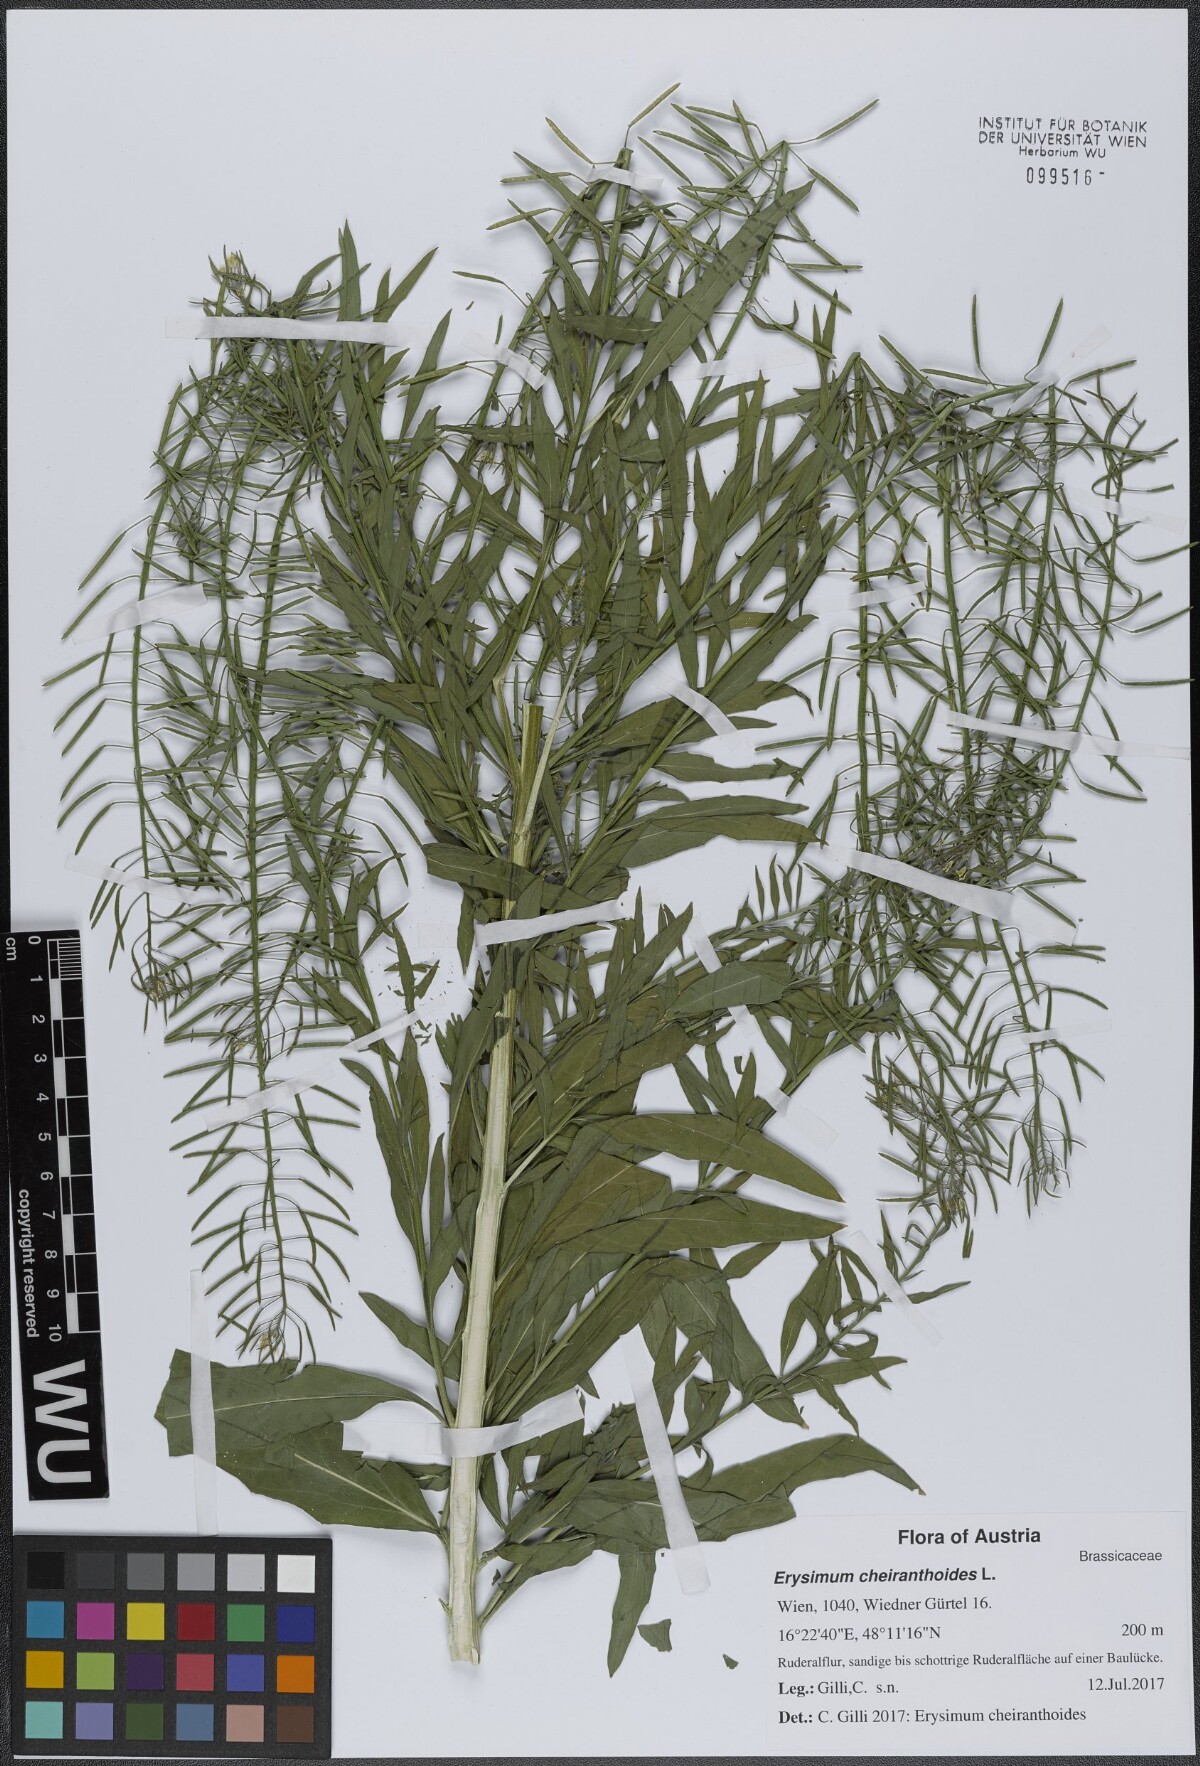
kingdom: Plantae
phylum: Tracheophyta
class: Magnoliopsida
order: Brassicales
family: Brassicaceae
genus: Erysimum
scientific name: Erysimum cheiranthoides
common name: Treacle mustard
